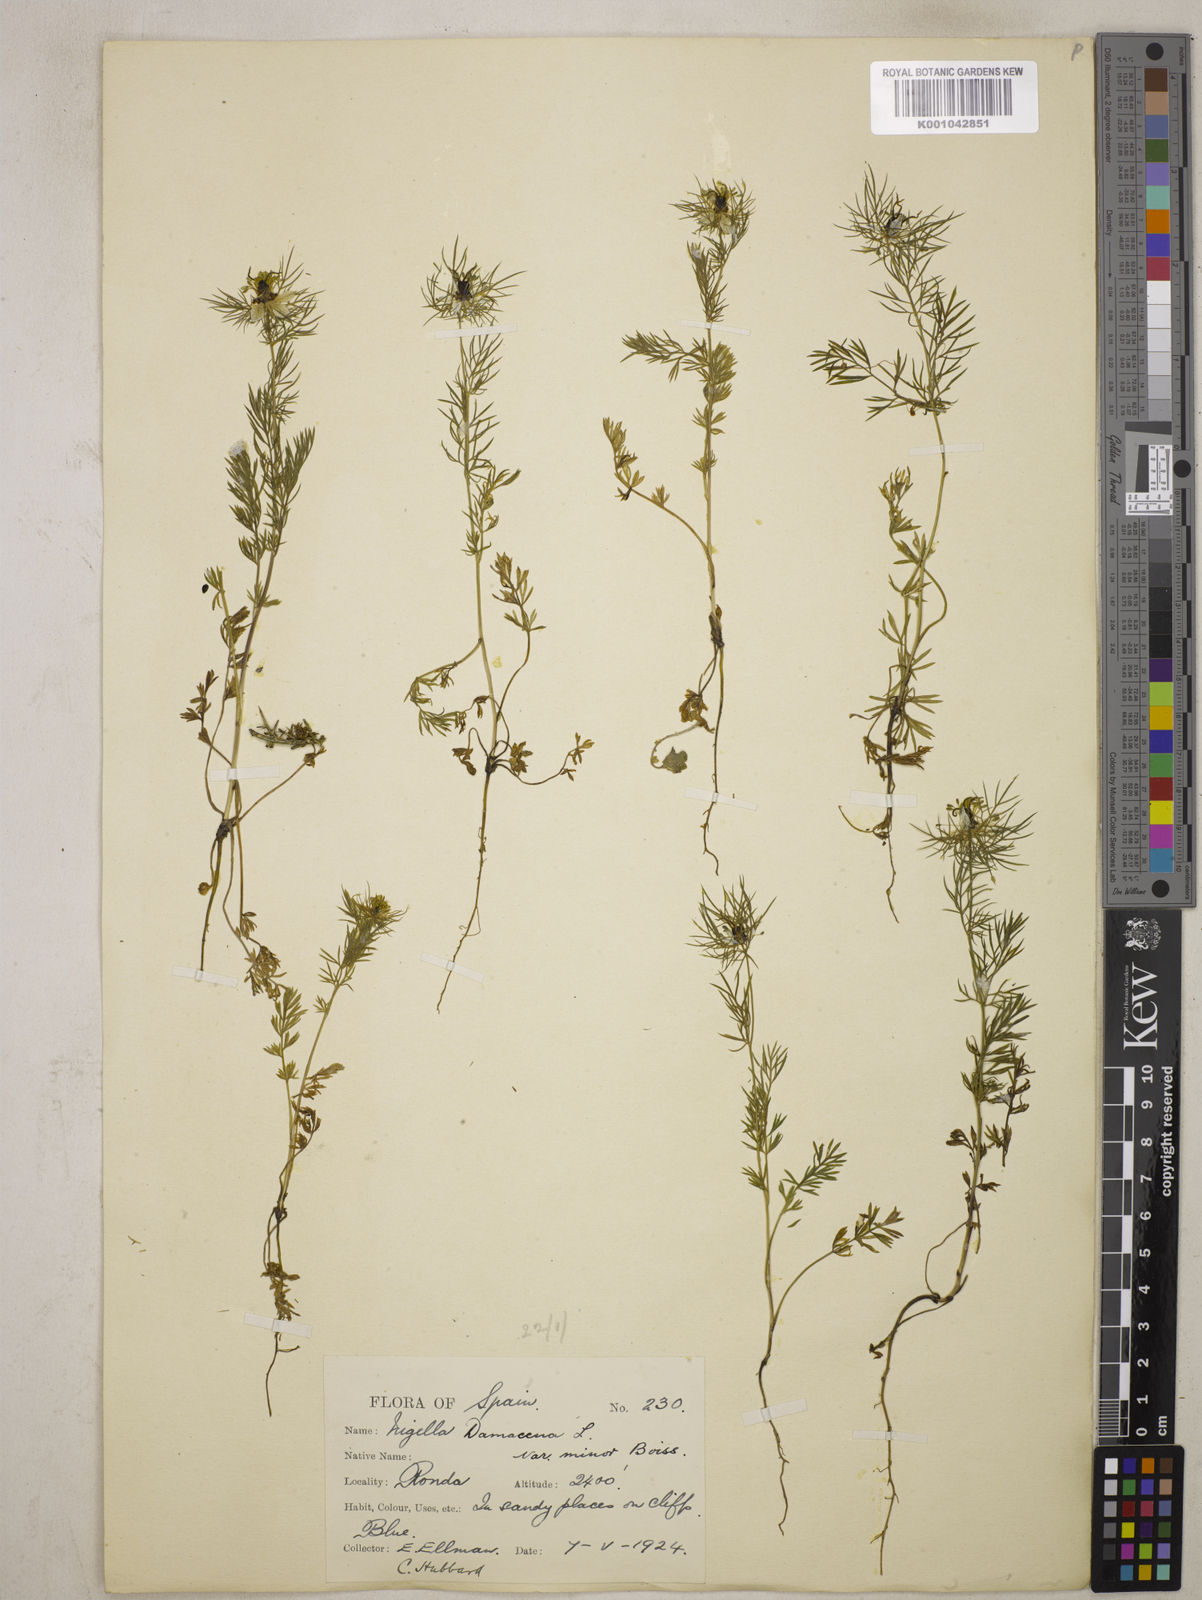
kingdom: Plantae
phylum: Tracheophyta
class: Magnoliopsida
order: Ranunculales
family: Ranunculaceae
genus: Nigella
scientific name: Nigella damascena
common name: Love-in-a-mist
